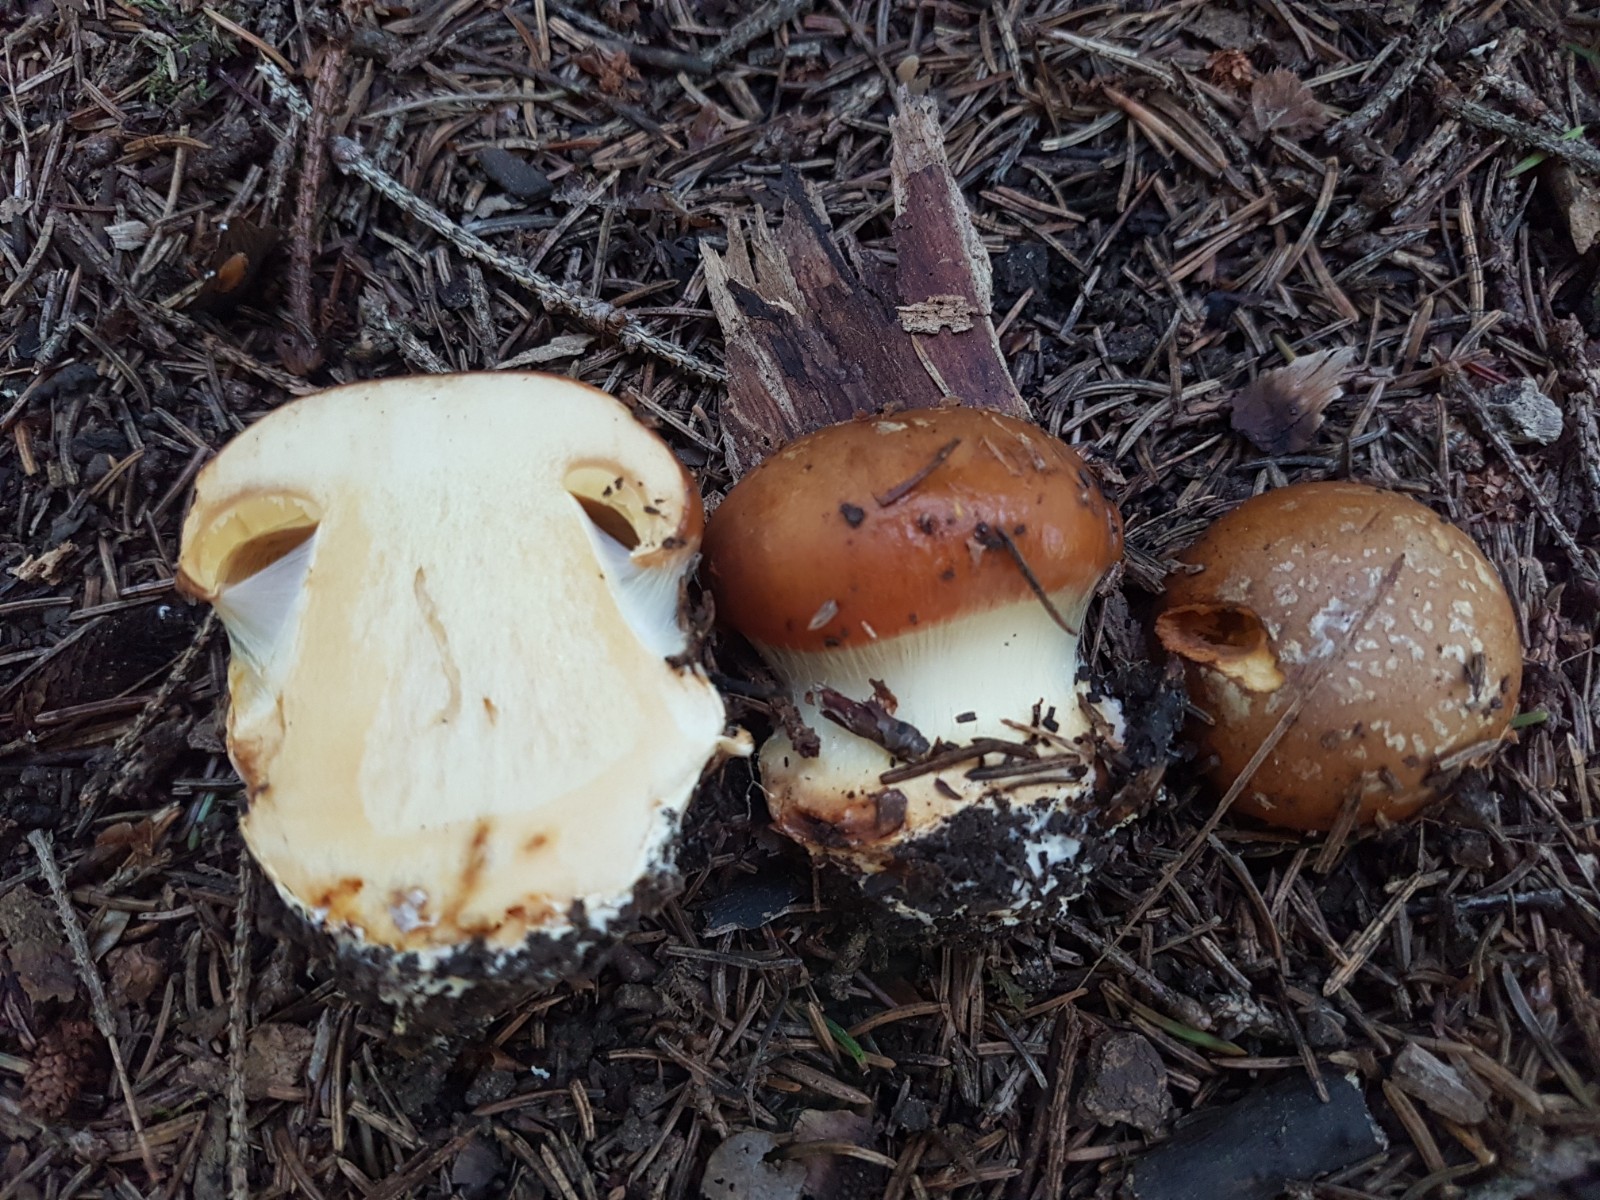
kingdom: Fungi
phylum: Basidiomycota
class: Agaricomycetes
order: Agaricales
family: Cortinariaceae
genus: Calonarius
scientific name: Calonarius elegantior
